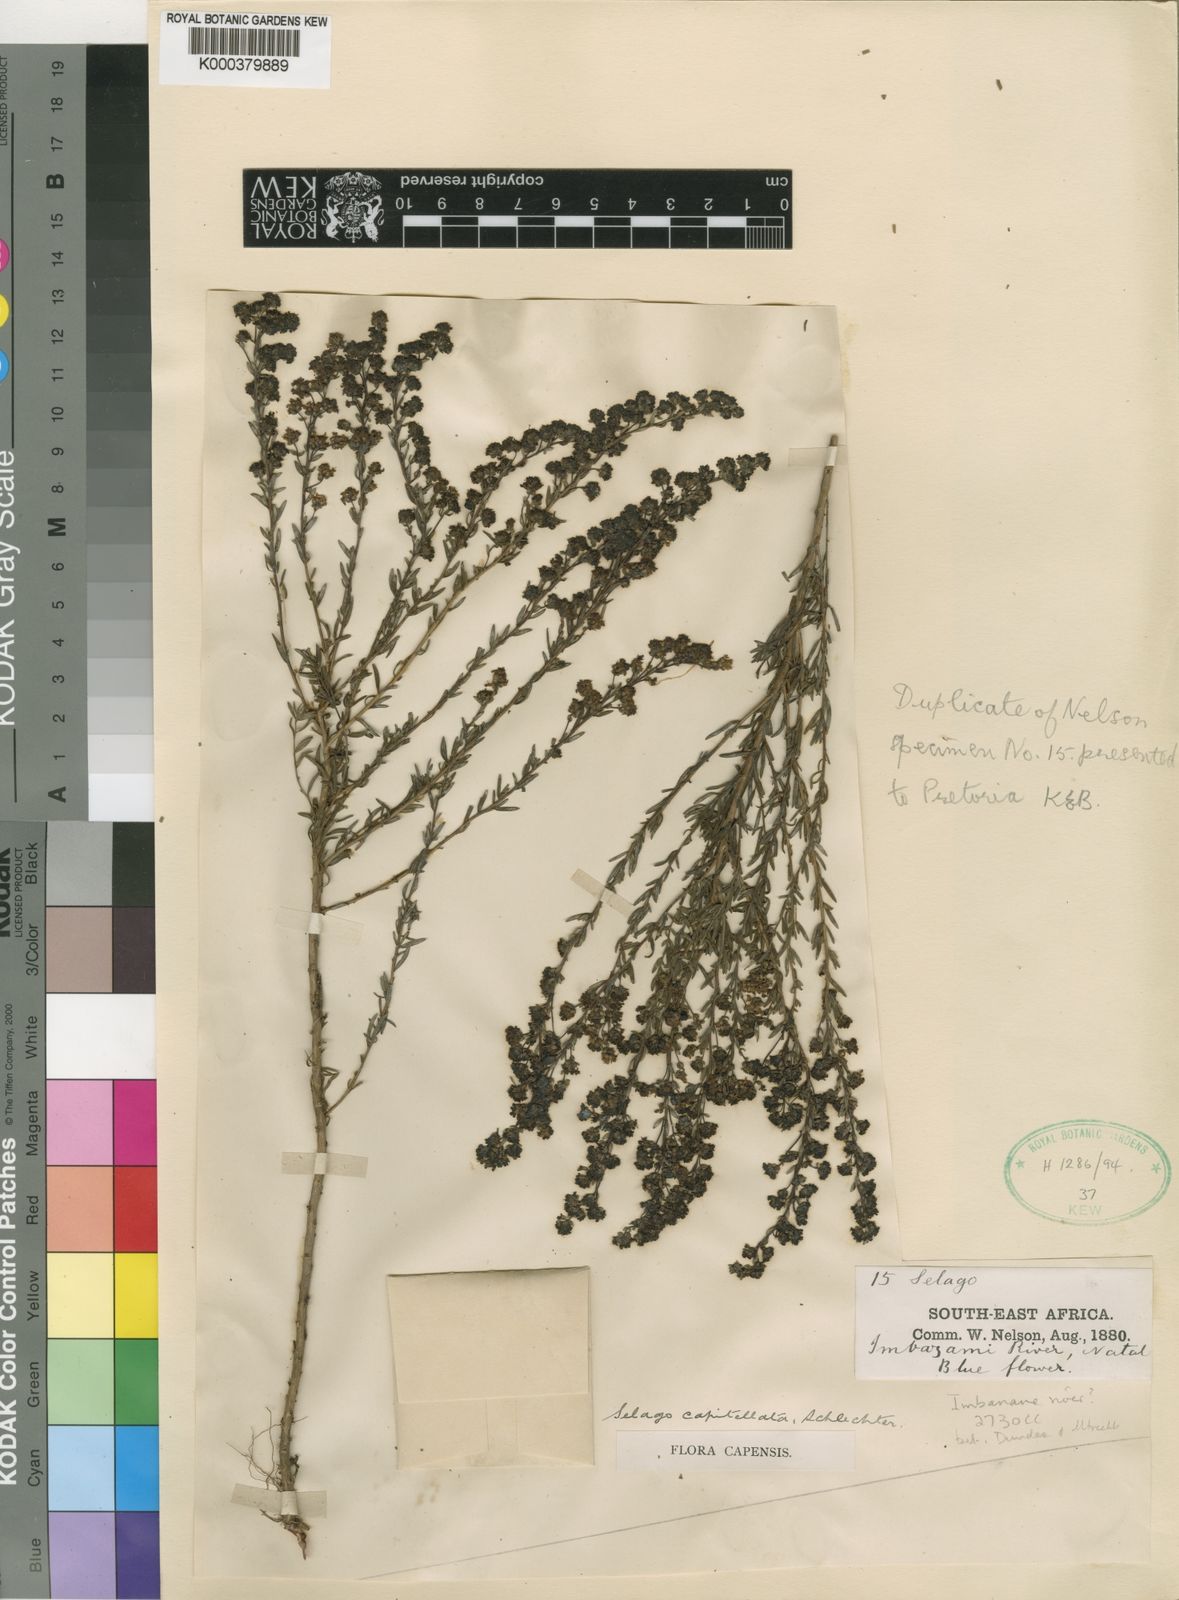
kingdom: Plantae
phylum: Tracheophyta
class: Magnoliopsida
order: Lamiales
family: Scrophulariaceae
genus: Selago
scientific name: Selago capitellata
